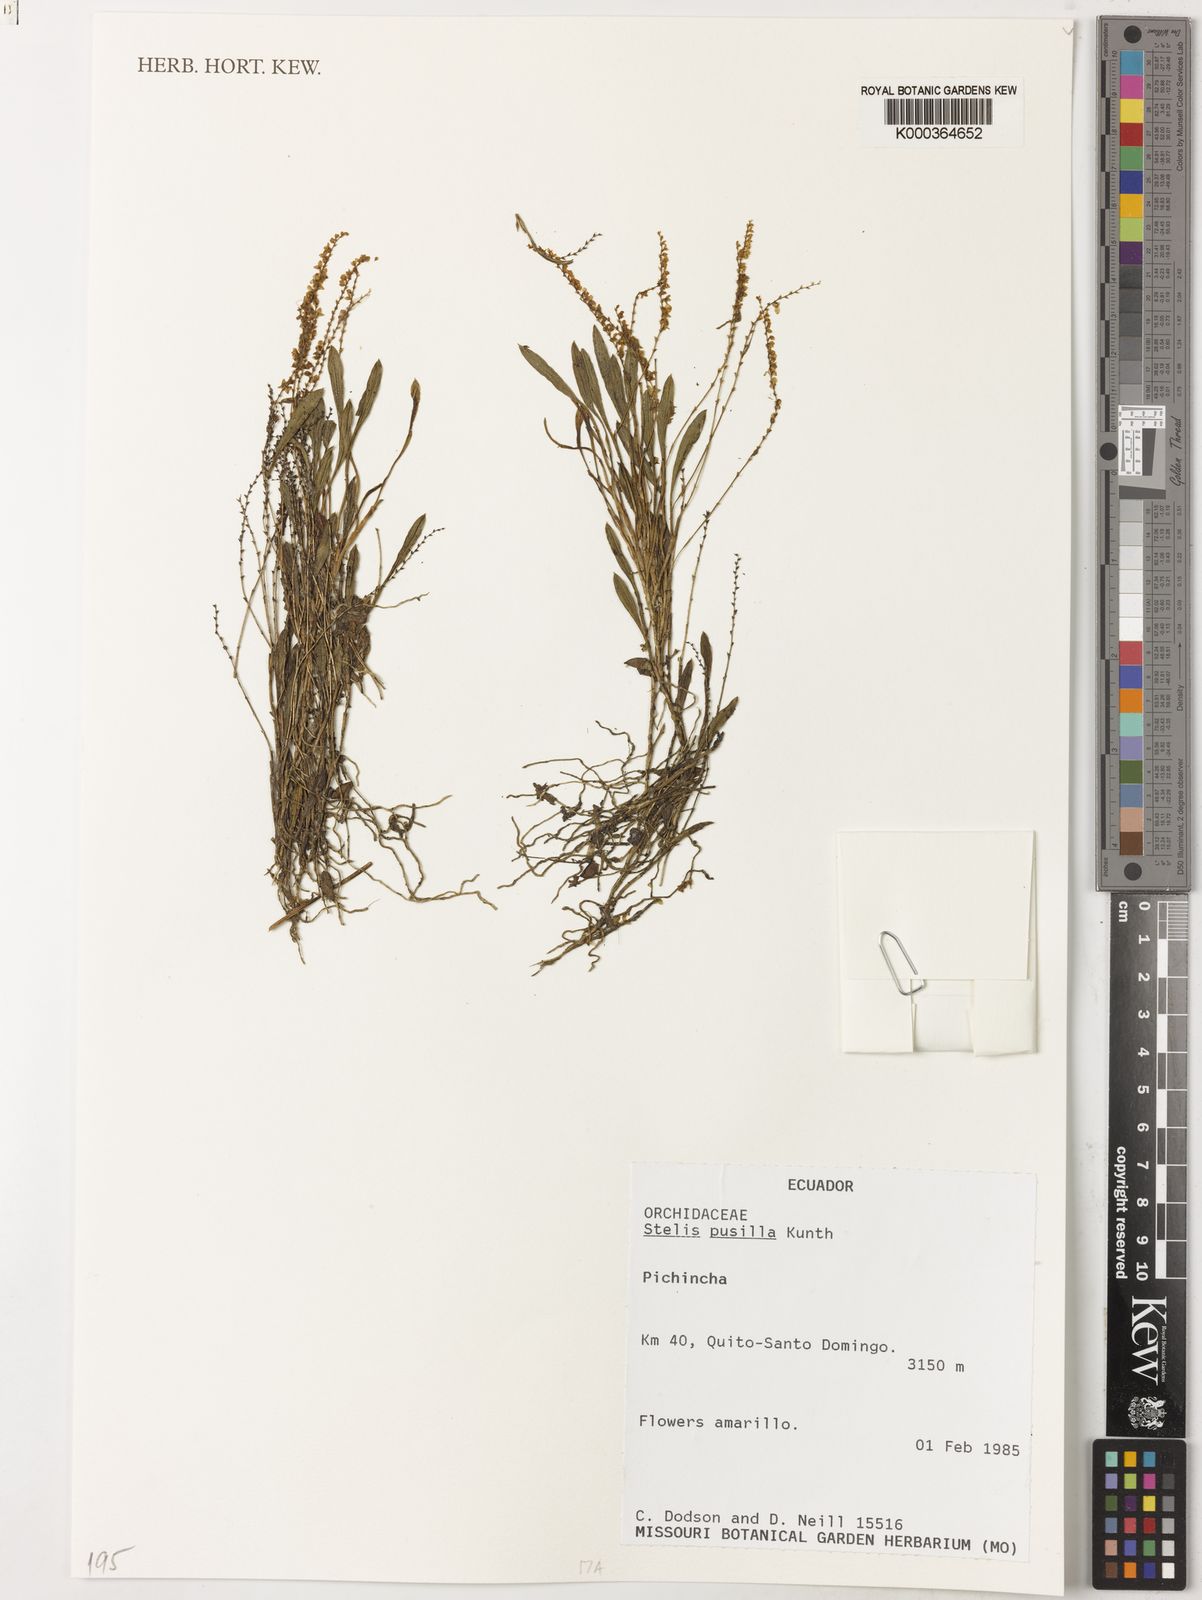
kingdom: Plantae
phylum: Tracheophyta
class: Liliopsida
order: Asparagales
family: Orchidaceae
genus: Stelis
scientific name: Stelis pusilla
